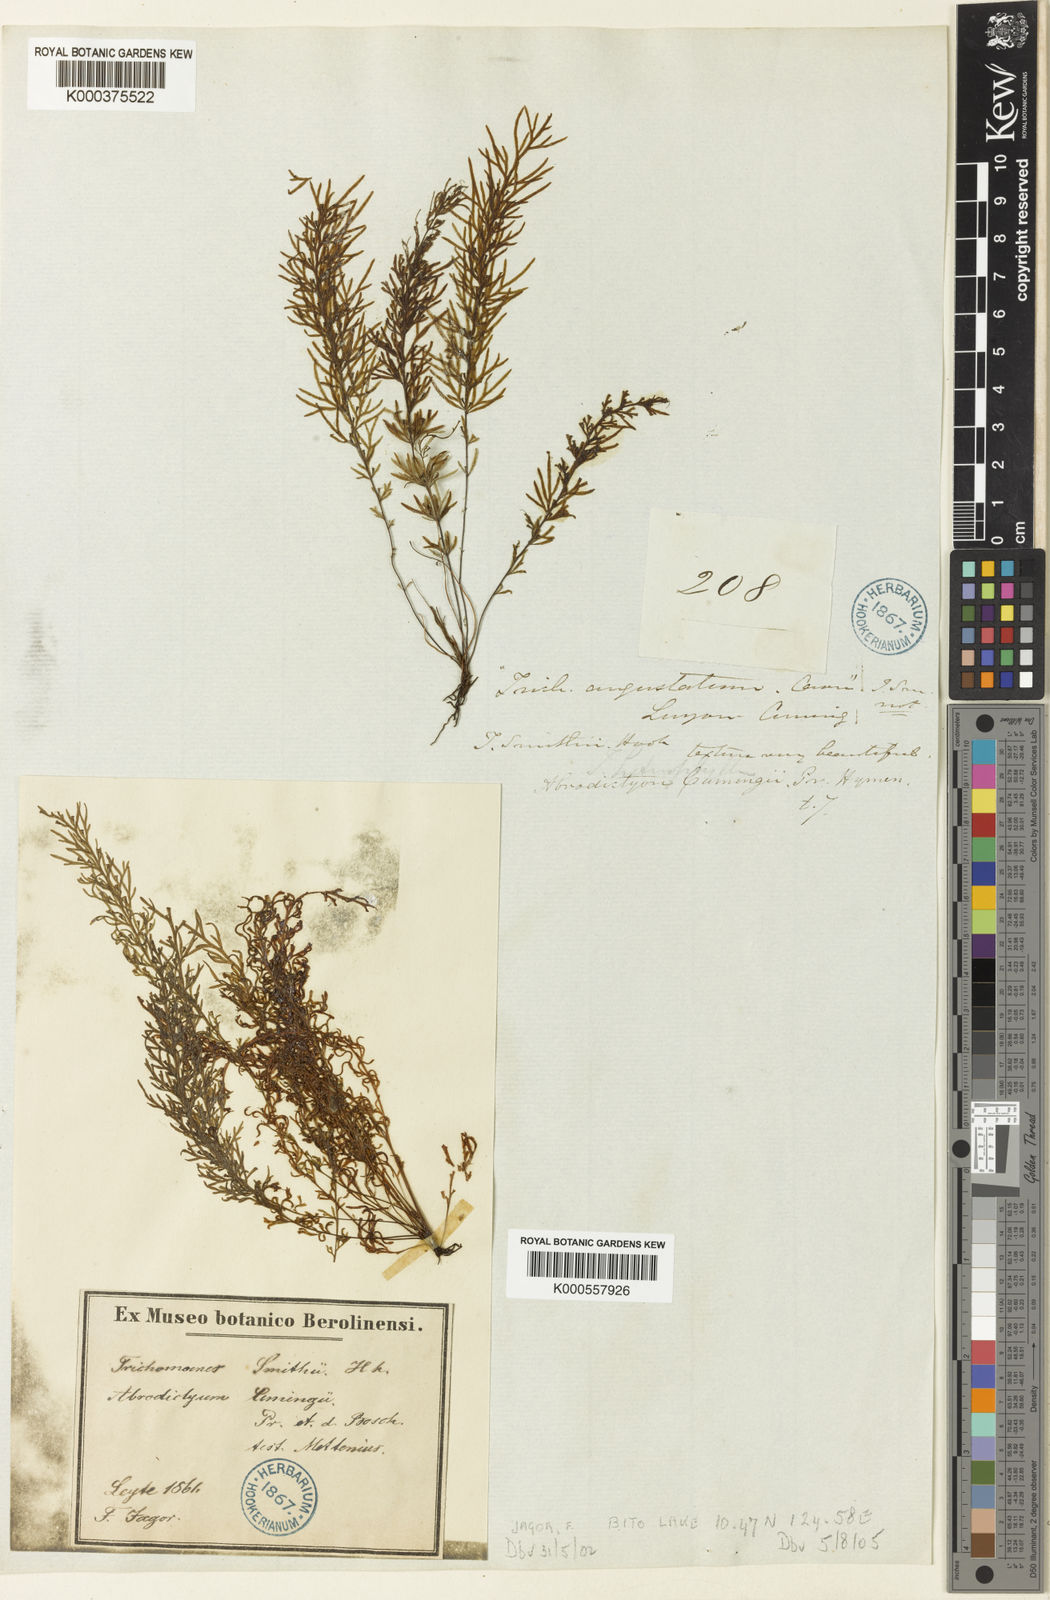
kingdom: Plantae
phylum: Tracheophyta
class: Polypodiopsida
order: Hymenophyllales
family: Hymenophyllaceae
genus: Abrodictyum
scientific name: Abrodictyum cumingii
